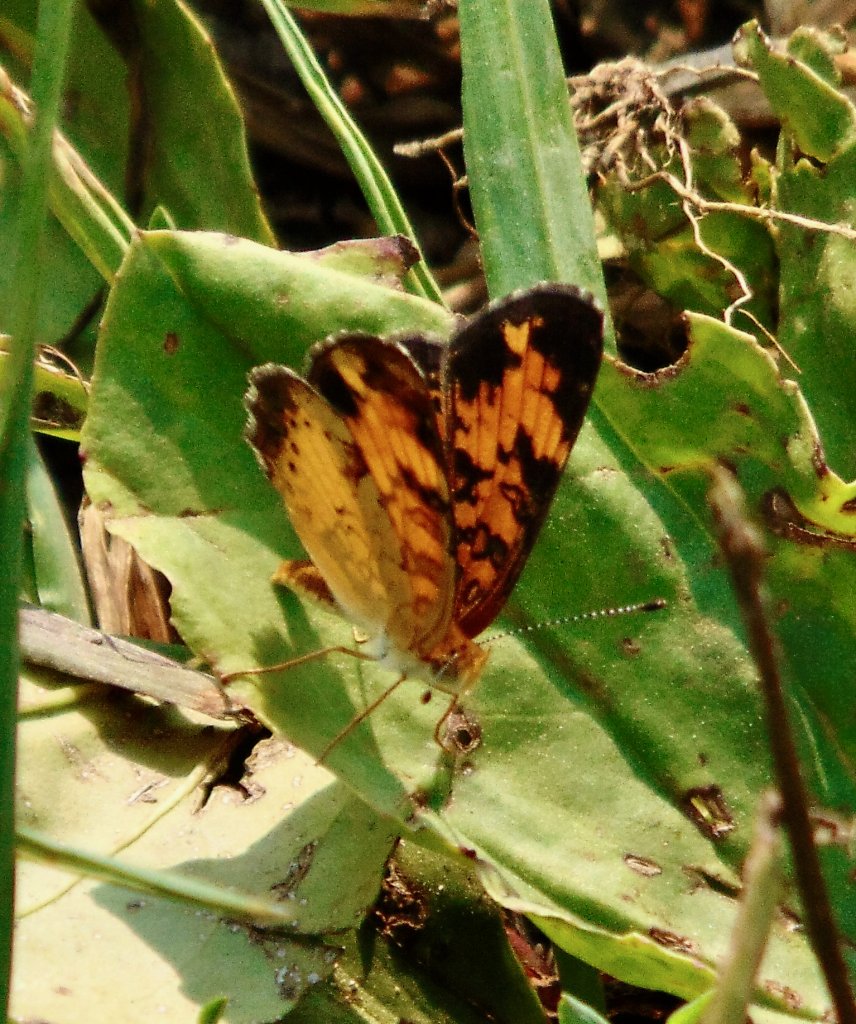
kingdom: Animalia
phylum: Arthropoda
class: Insecta
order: Lepidoptera
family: Nymphalidae
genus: Phyciodes
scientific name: Phyciodes tharos
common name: Pearl Crescent
